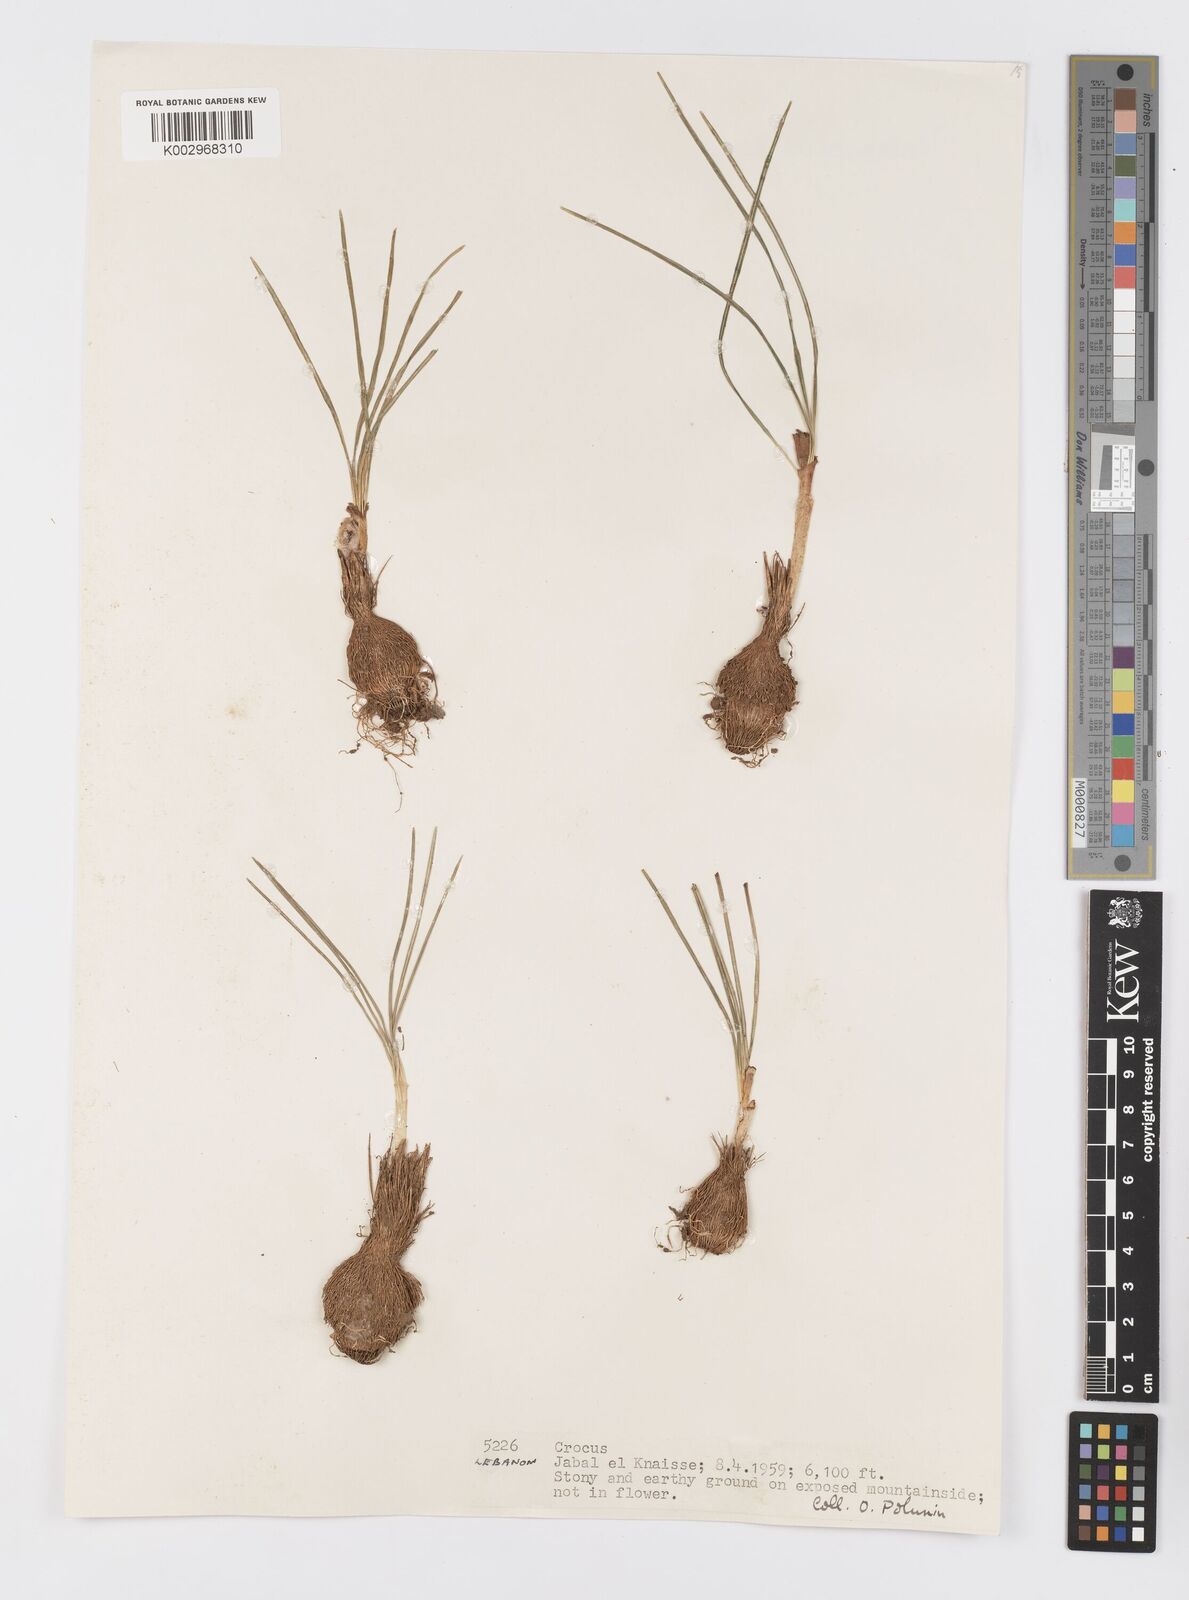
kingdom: Plantae
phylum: Tracheophyta
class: Liliopsida
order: Asparagales
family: Iridaceae
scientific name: Iridaceae
